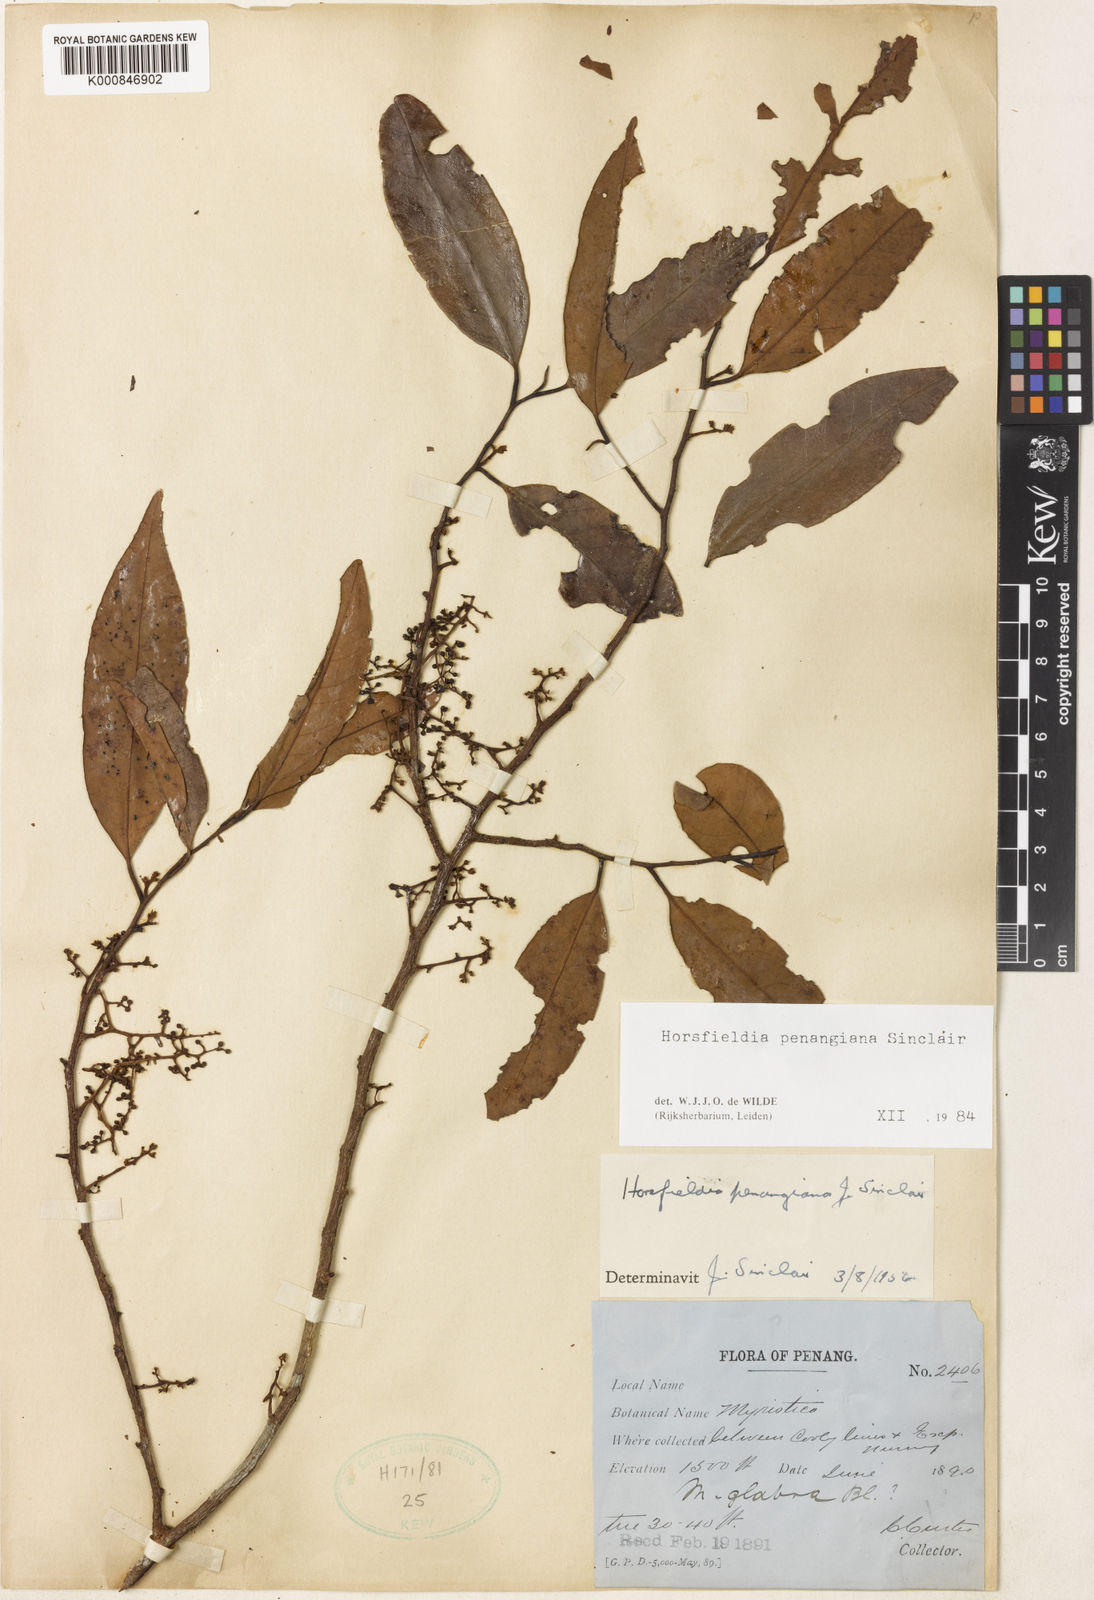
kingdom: Plantae
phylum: Tracheophyta
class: Magnoliopsida
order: Magnoliales
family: Myristicaceae
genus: Horsfieldia
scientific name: Horsfieldia penangiana
